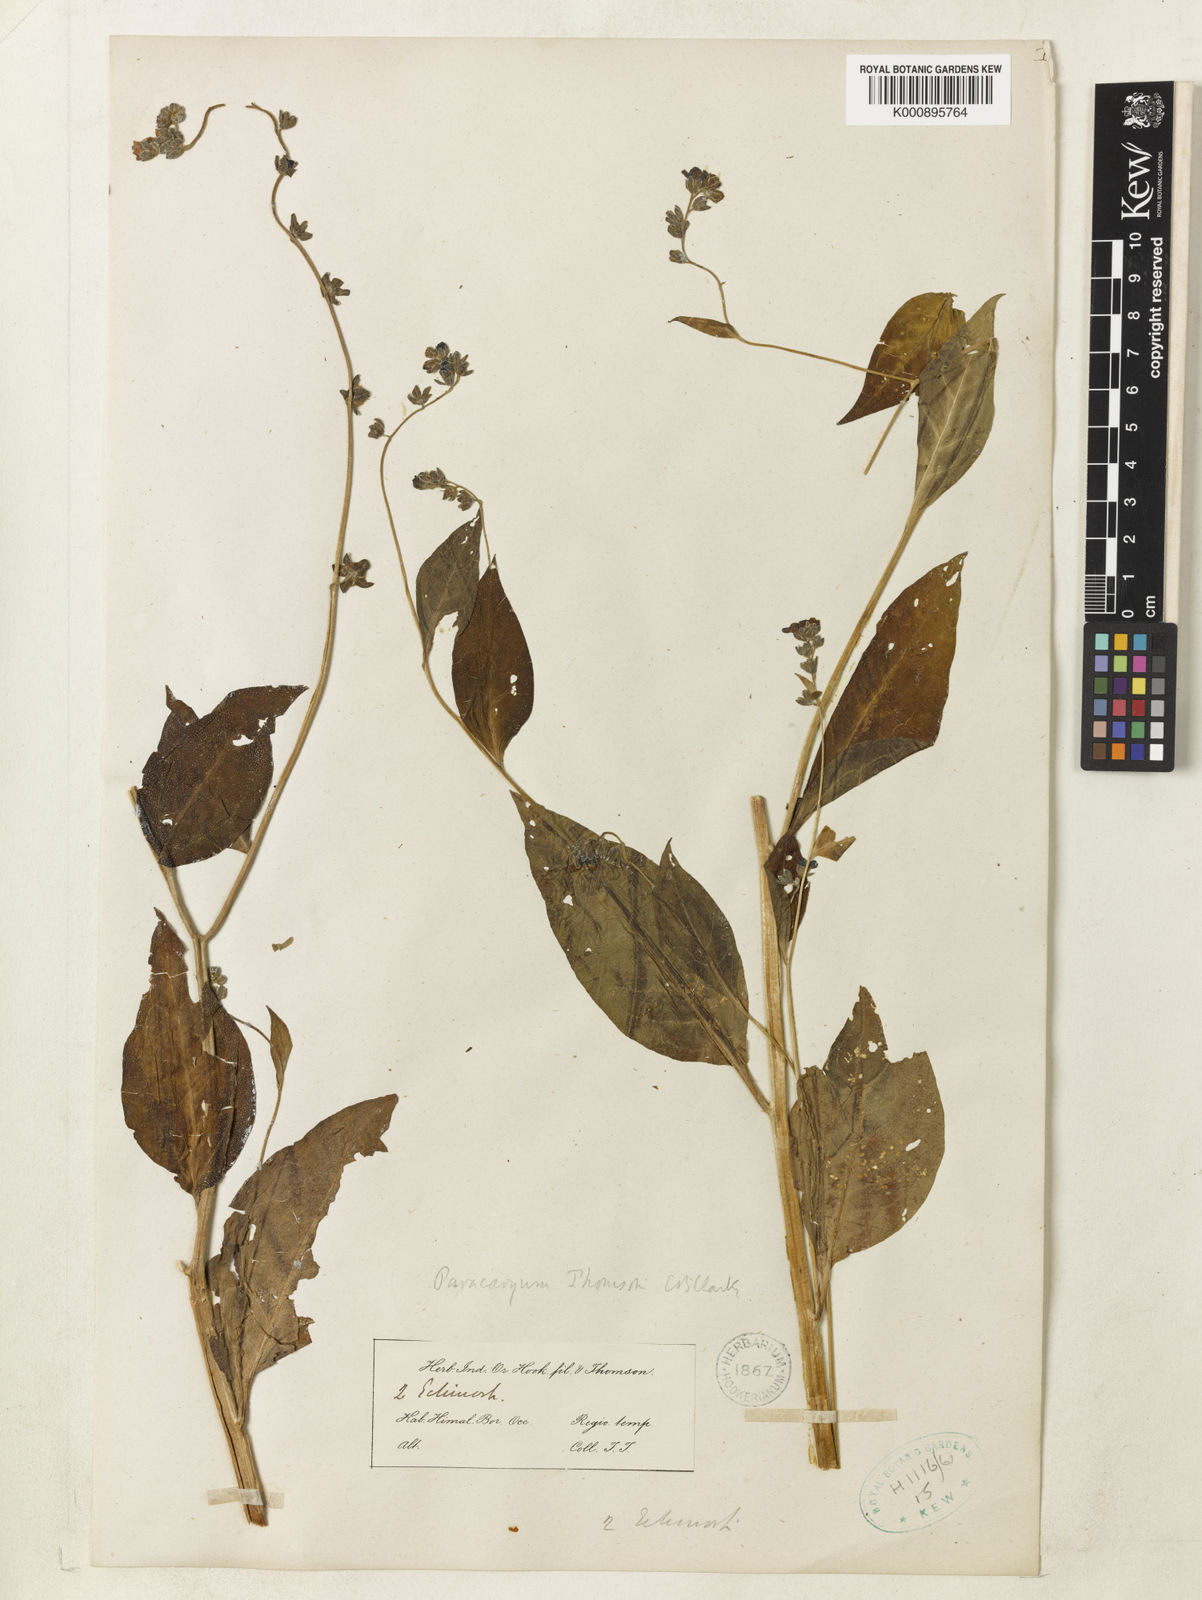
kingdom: Plantae
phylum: Tracheophyta
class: Magnoliopsida
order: Boraginales
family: Boraginaceae
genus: Paracaryum
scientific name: Paracaryum thomsonii
